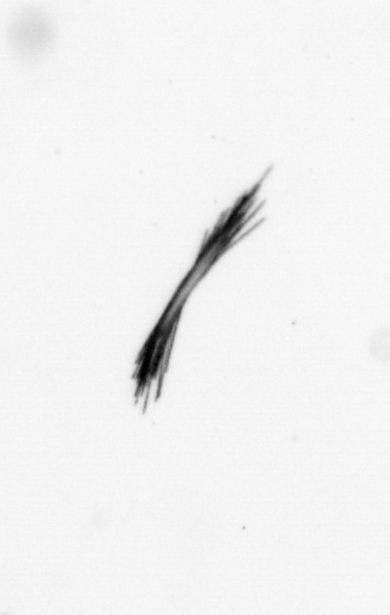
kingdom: Bacteria
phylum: Cyanobacteria
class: Cyanobacteriia
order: Cyanobacteriales
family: Microcoleaceae
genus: Trichodesmium
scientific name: Trichodesmium
